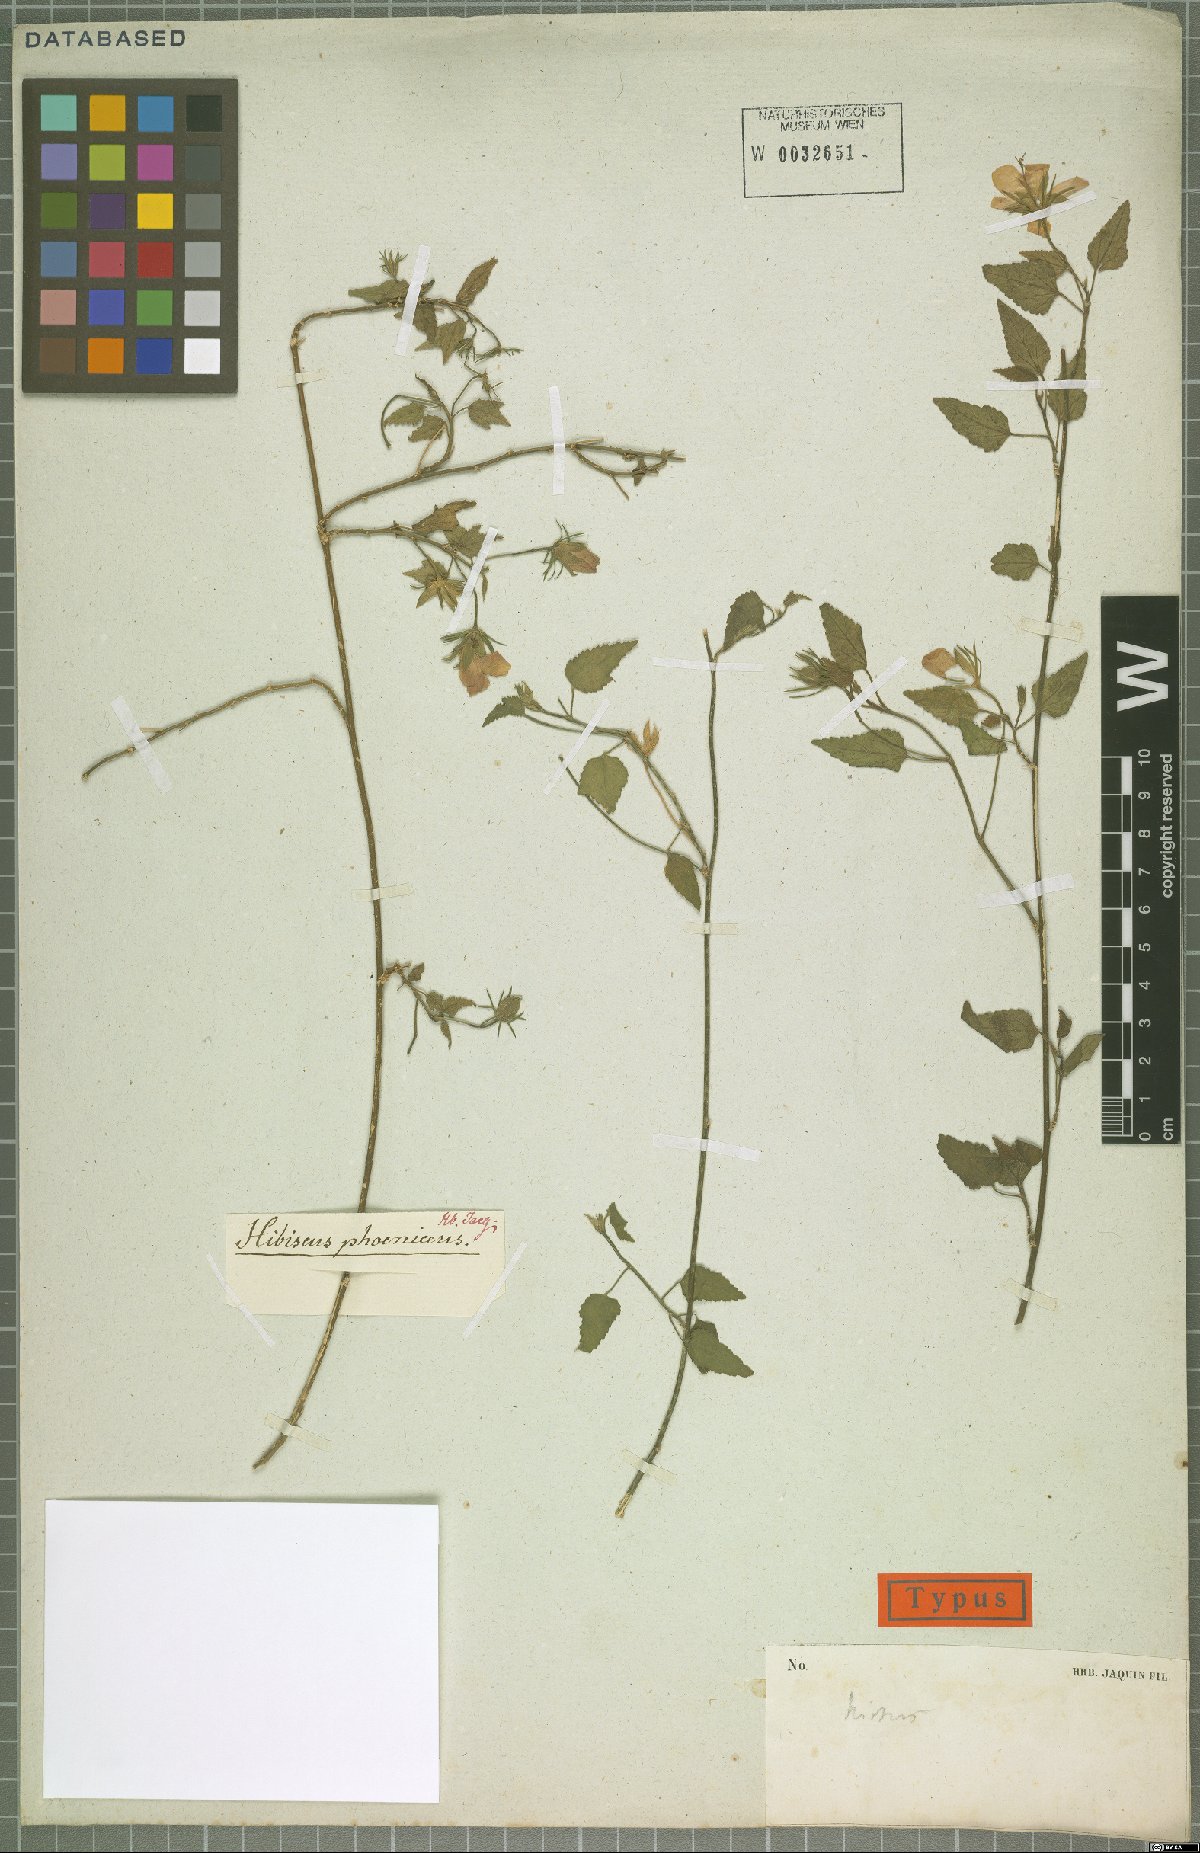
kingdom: Plantae
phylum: Tracheophyta
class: Magnoliopsida
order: Malvales
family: Malvaceae
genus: Hibiscus
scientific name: Hibiscus phoeniceus
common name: Brazilian rosemallow
